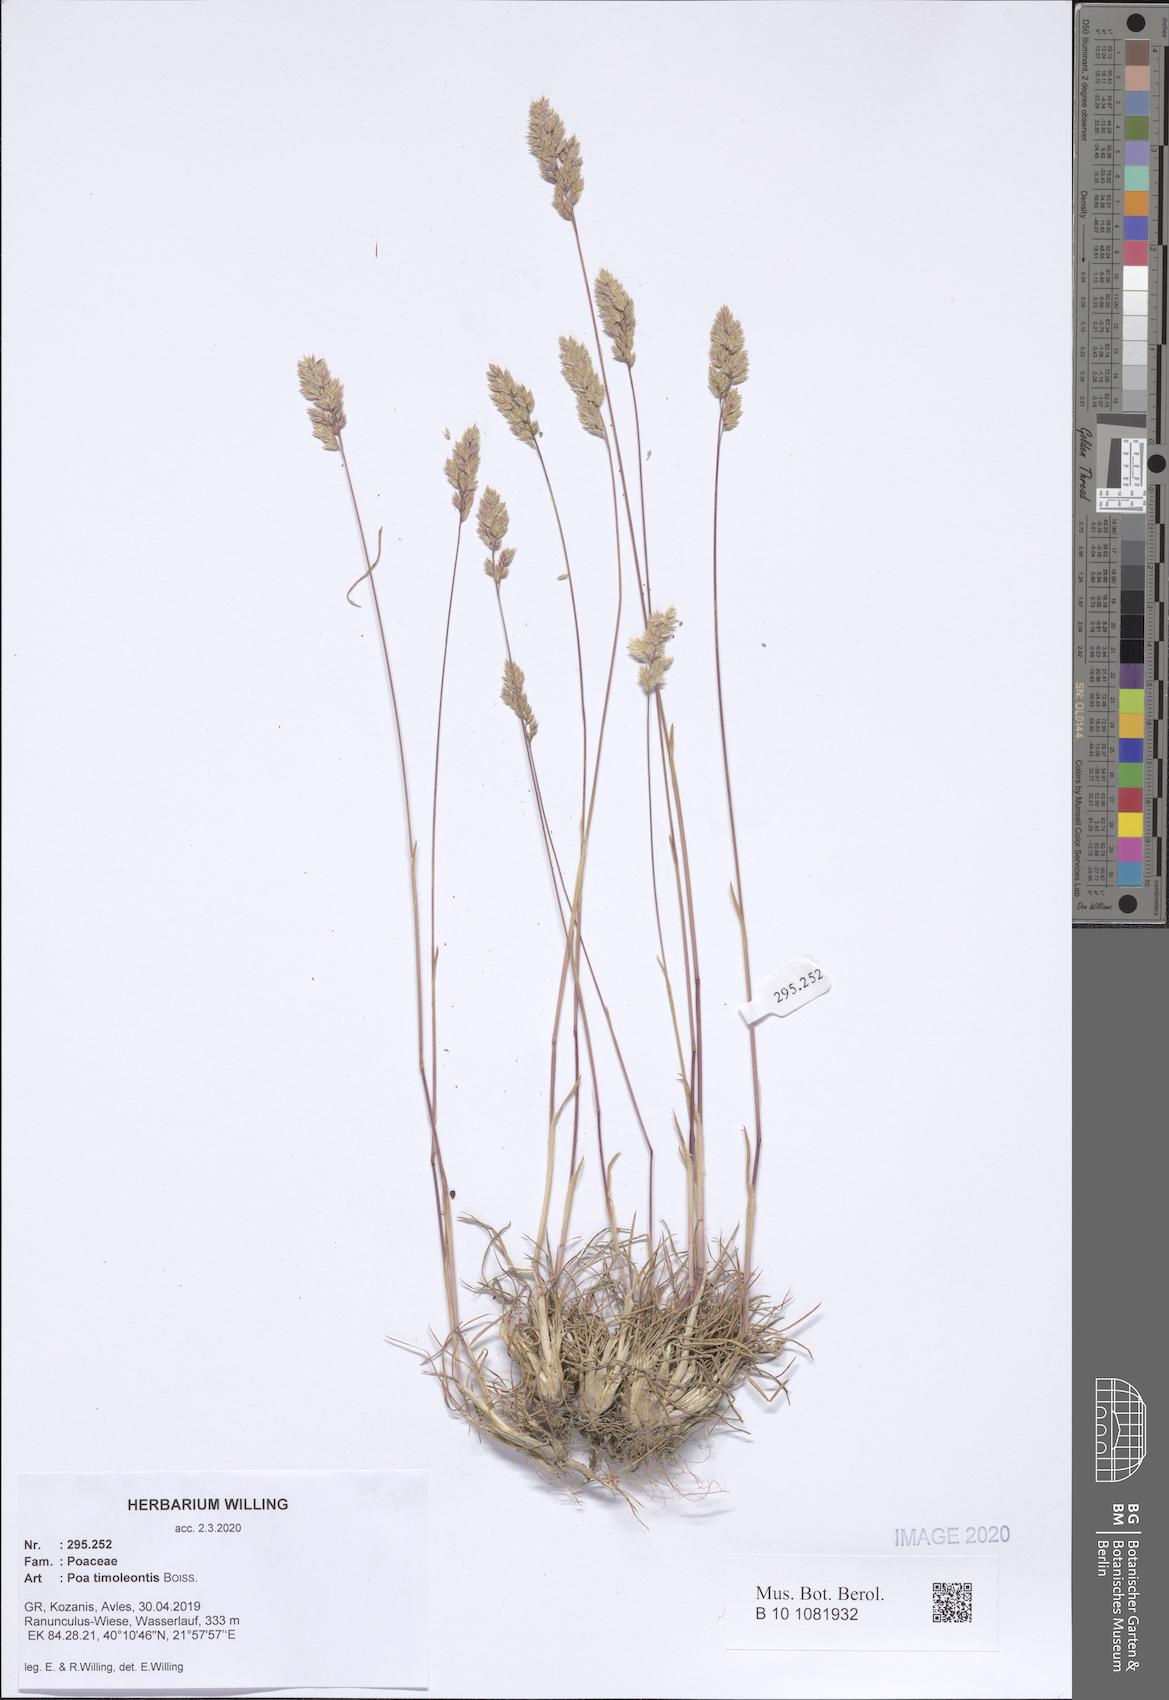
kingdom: Plantae
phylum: Tracheophyta
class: Liliopsida
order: Poales
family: Poaceae
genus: Poa
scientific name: Poa timoleontis
